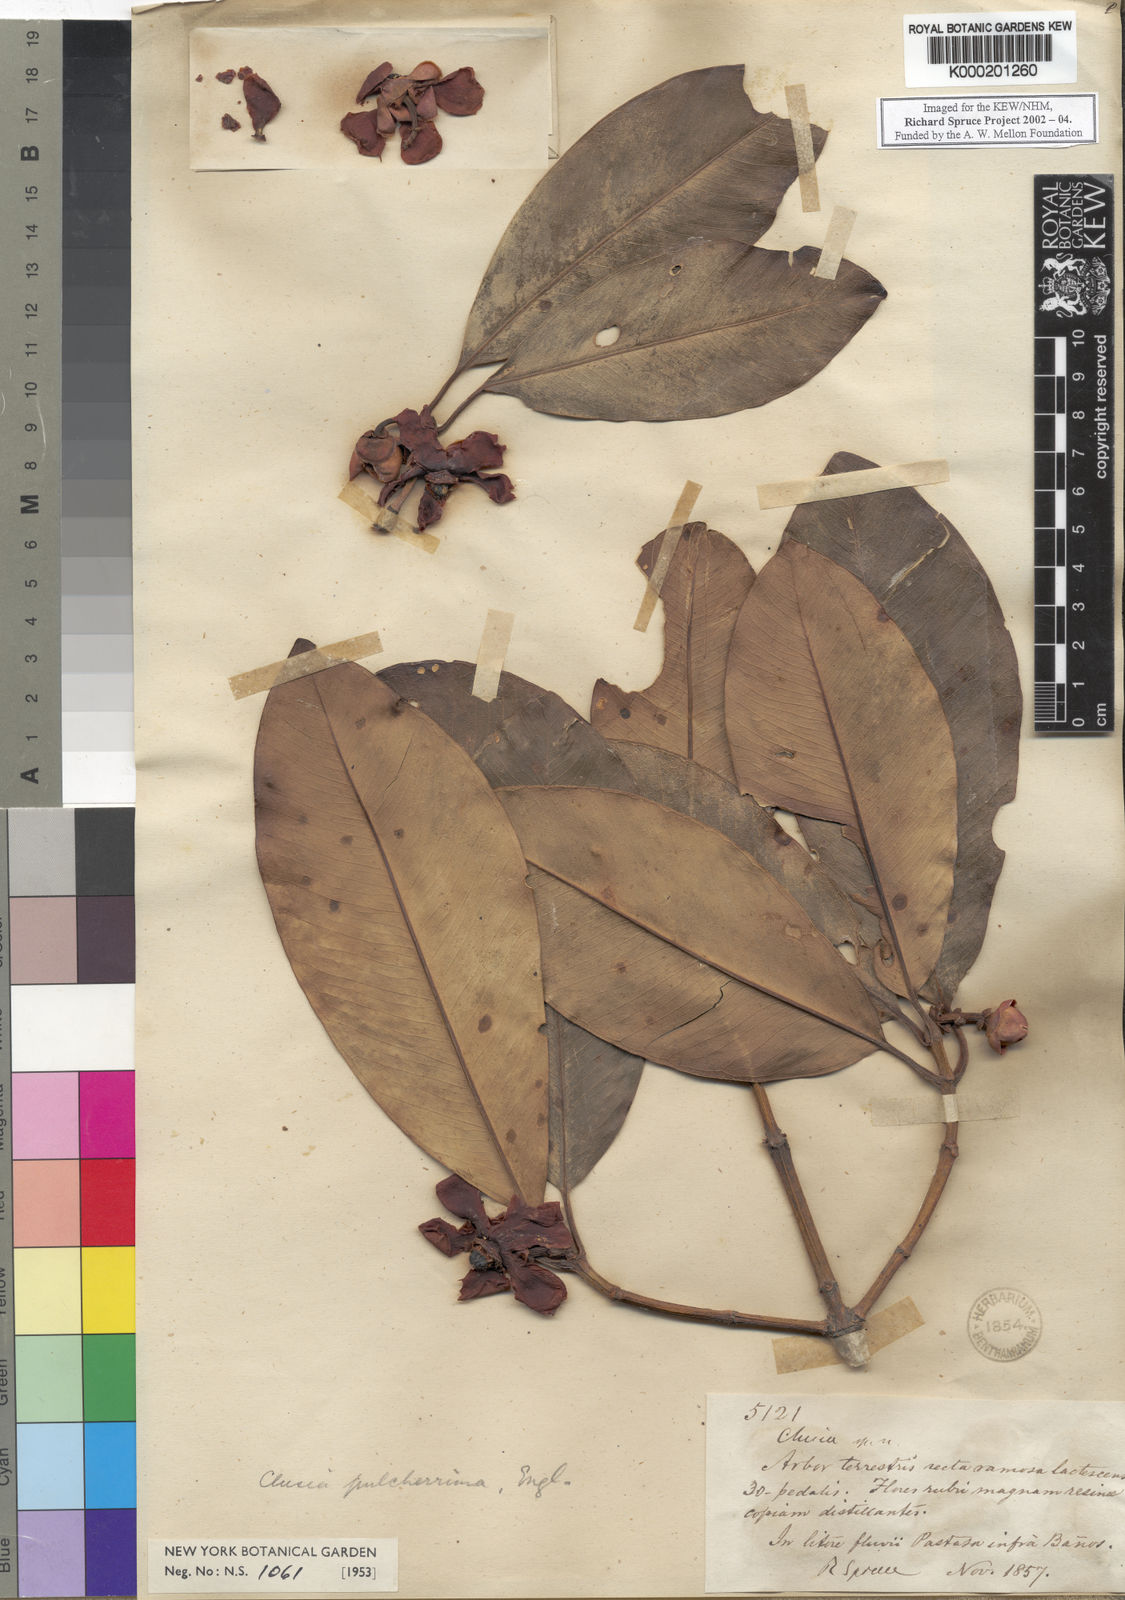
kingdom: Plantae
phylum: Tracheophyta
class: Magnoliopsida
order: Malpighiales
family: Clusiaceae
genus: Clusia
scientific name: Clusia
